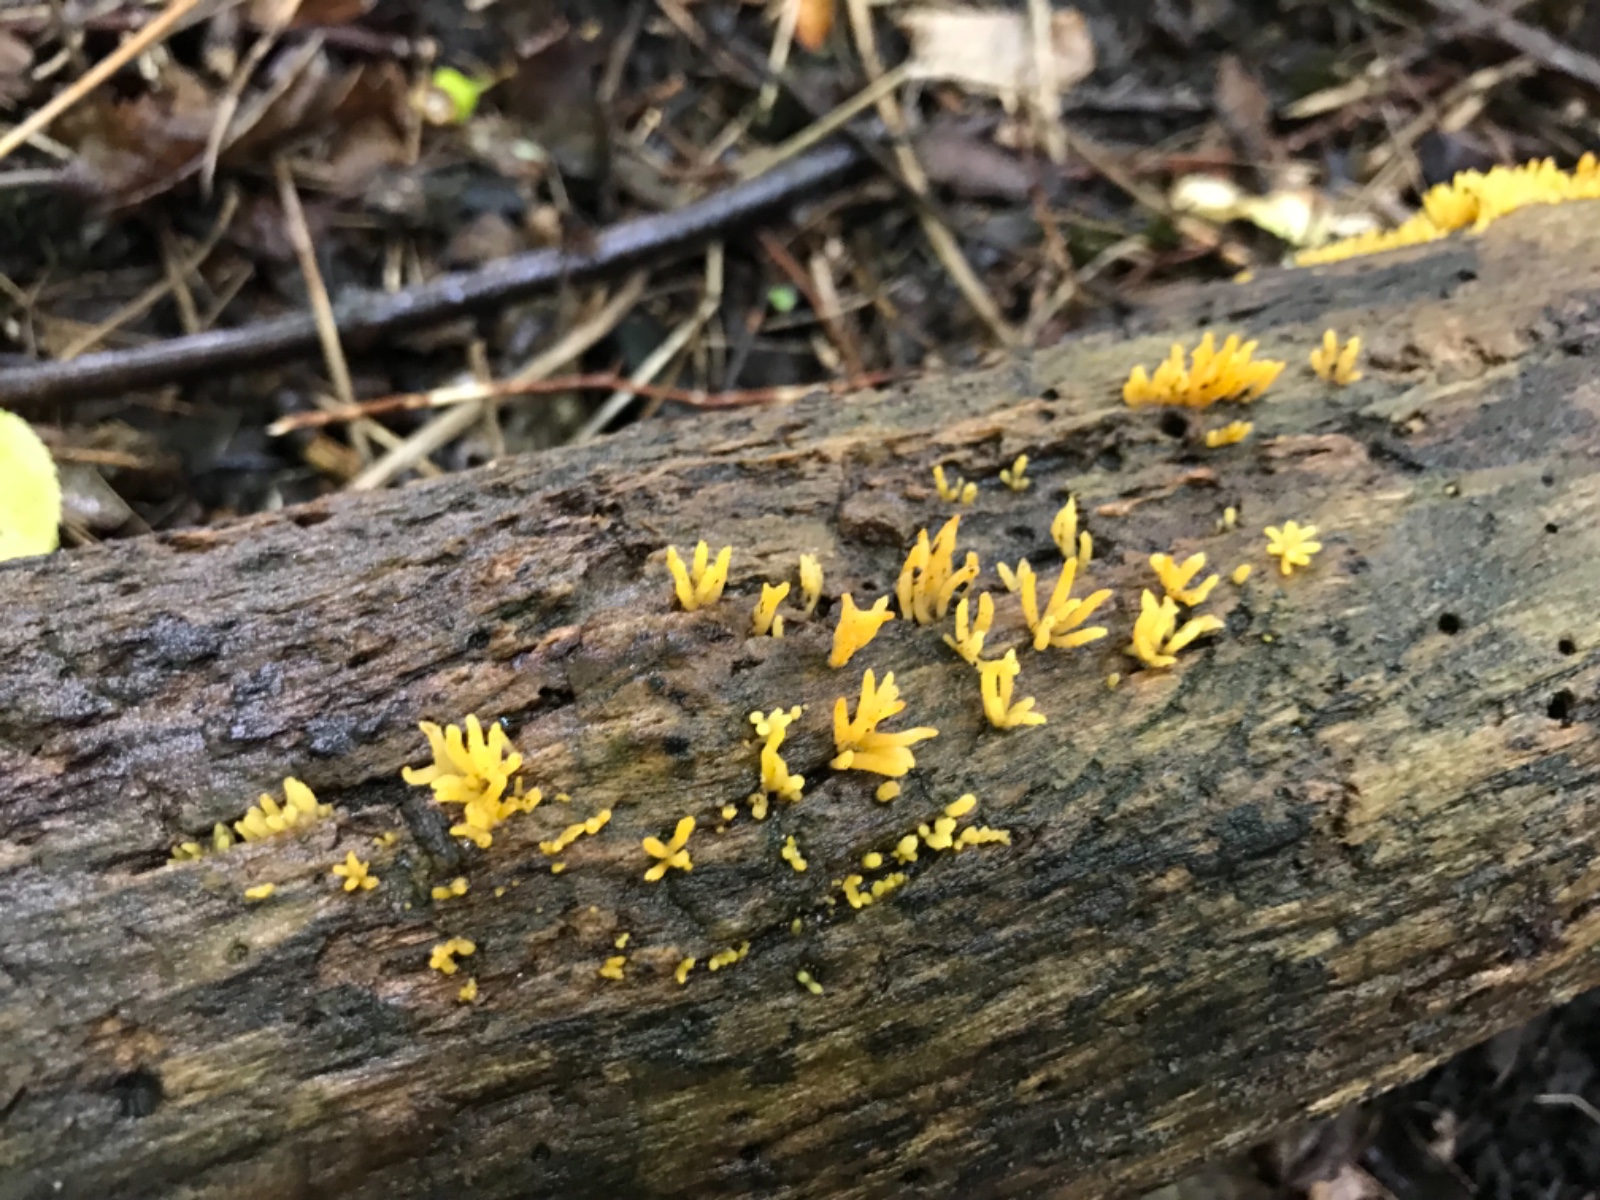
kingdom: Fungi
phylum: Basidiomycota
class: Dacrymycetes
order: Dacrymycetales
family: Dacrymycetaceae
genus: Calocera
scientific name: Calocera cornea
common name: liden guldgaffel
